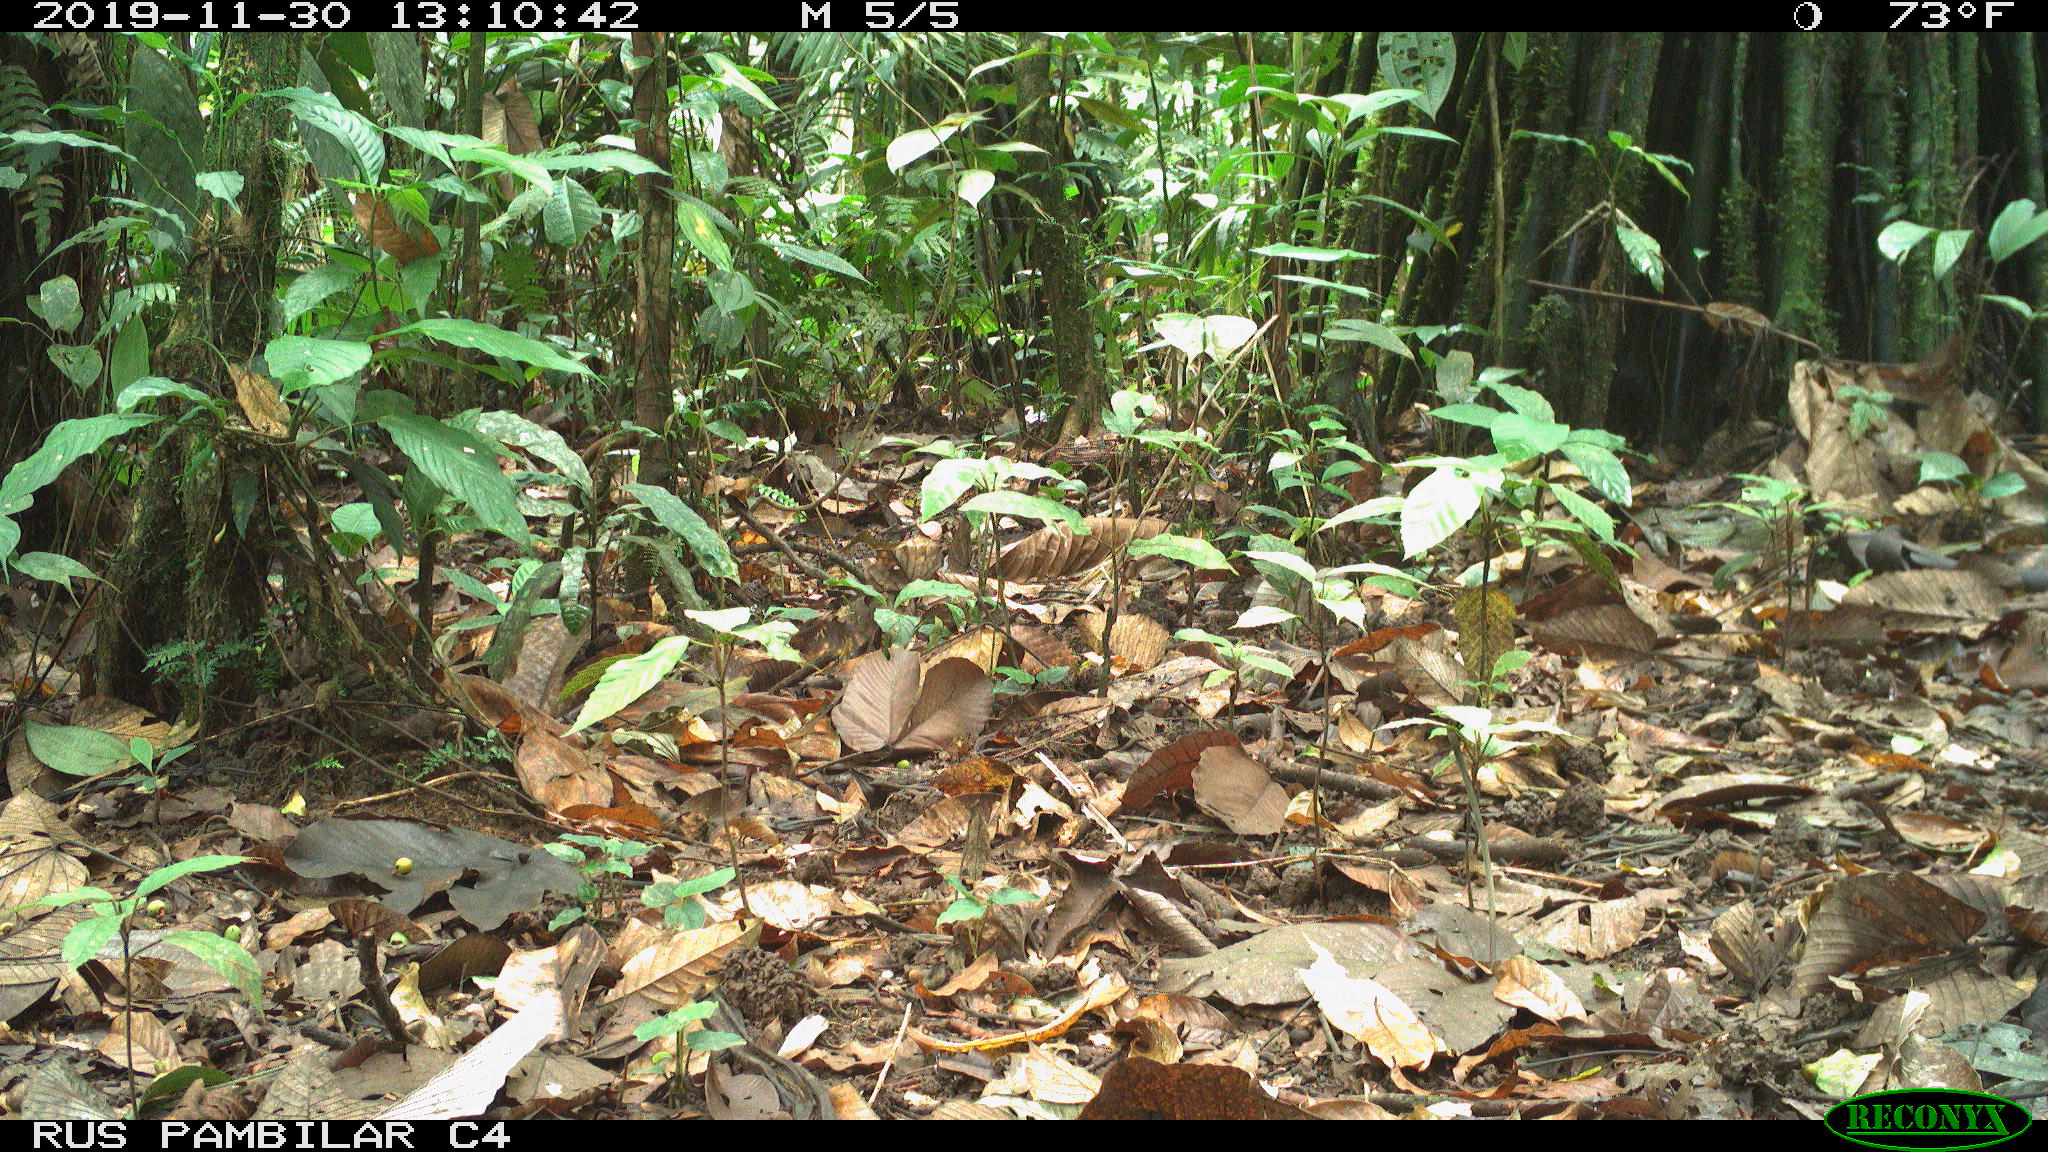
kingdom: Animalia
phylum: Chordata
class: Mammalia
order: Rodentia
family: Dasyproctidae
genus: Dasyprocta
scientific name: Dasyprocta punctata
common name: Central american agouti
